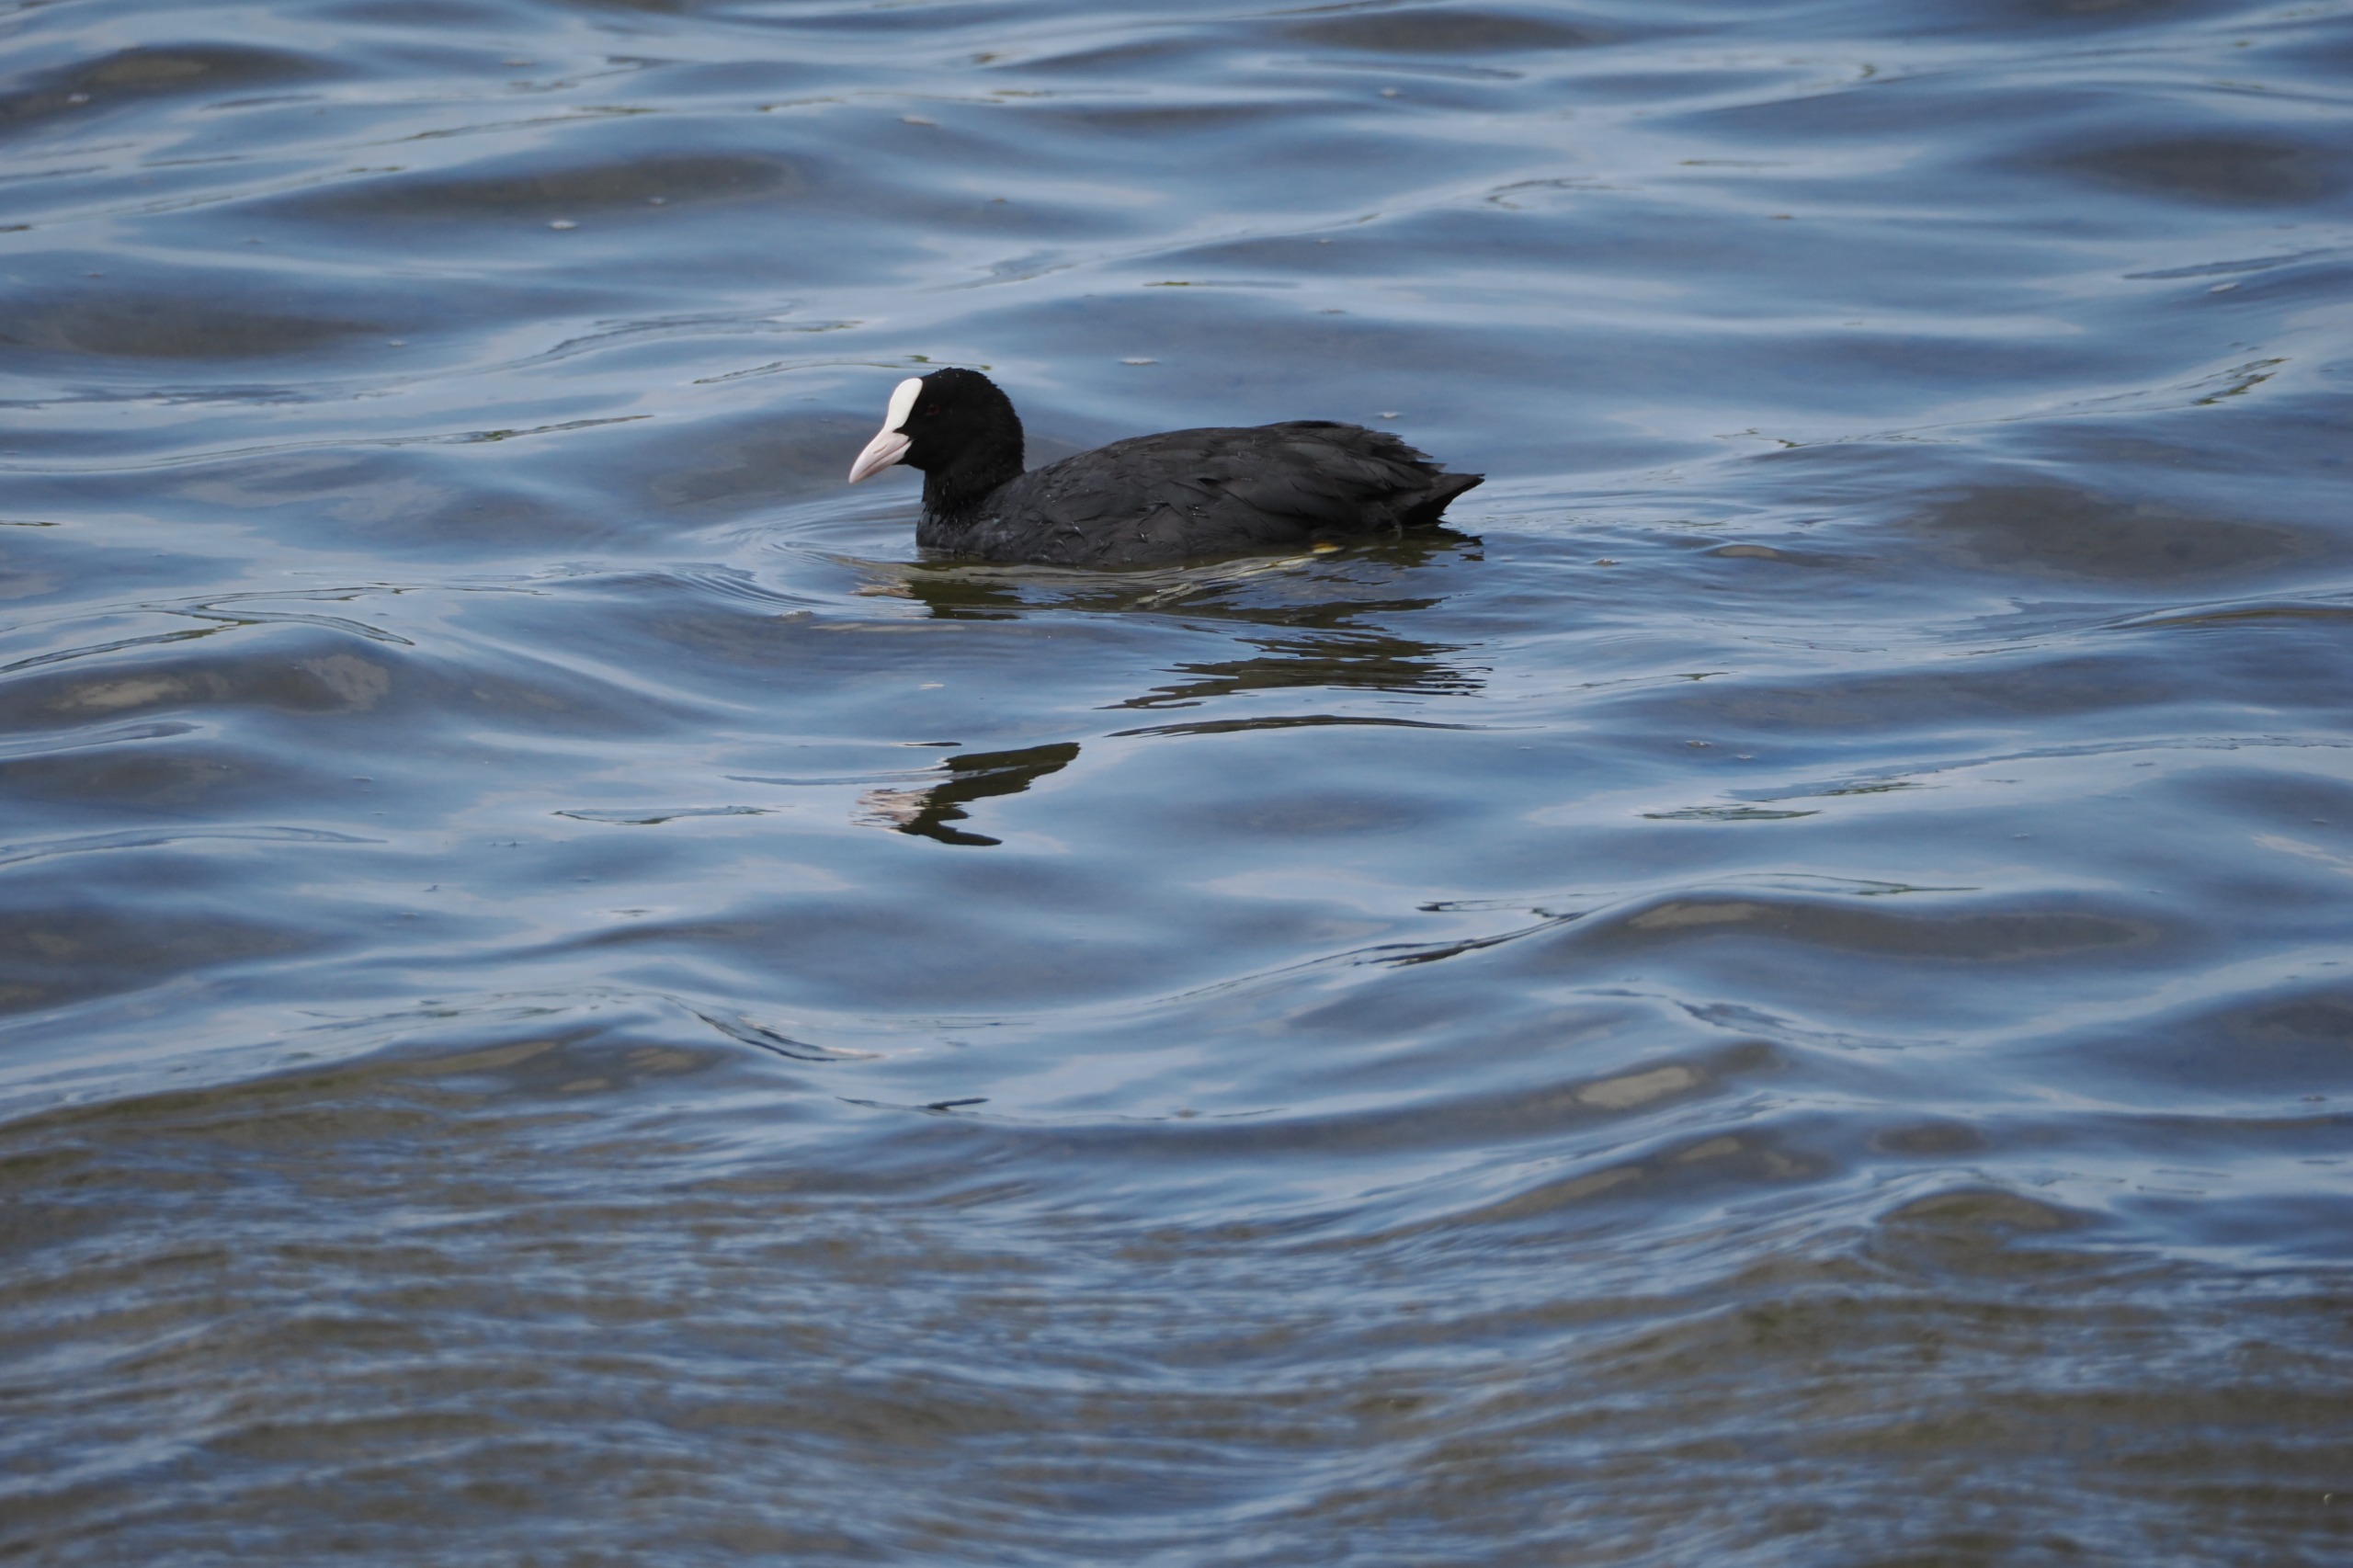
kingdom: Animalia
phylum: Chordata
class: Aves
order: Gruiformes
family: Rallidae
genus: Fulica
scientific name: Fulica atra
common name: Blishøne
